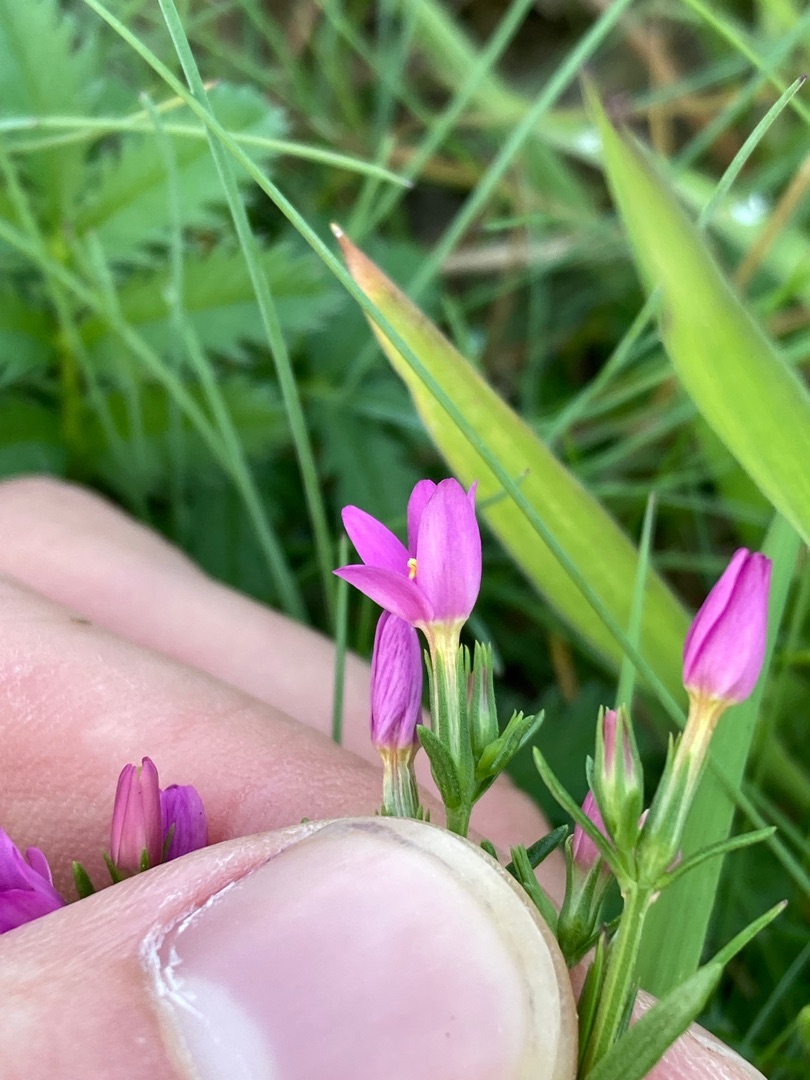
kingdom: Plantae
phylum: Tracheophyta
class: Magnoliopsida
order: Gentianales
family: Gentianaceae
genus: Centaurium
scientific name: Centaurium littorale
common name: Strand-tusindgylden
